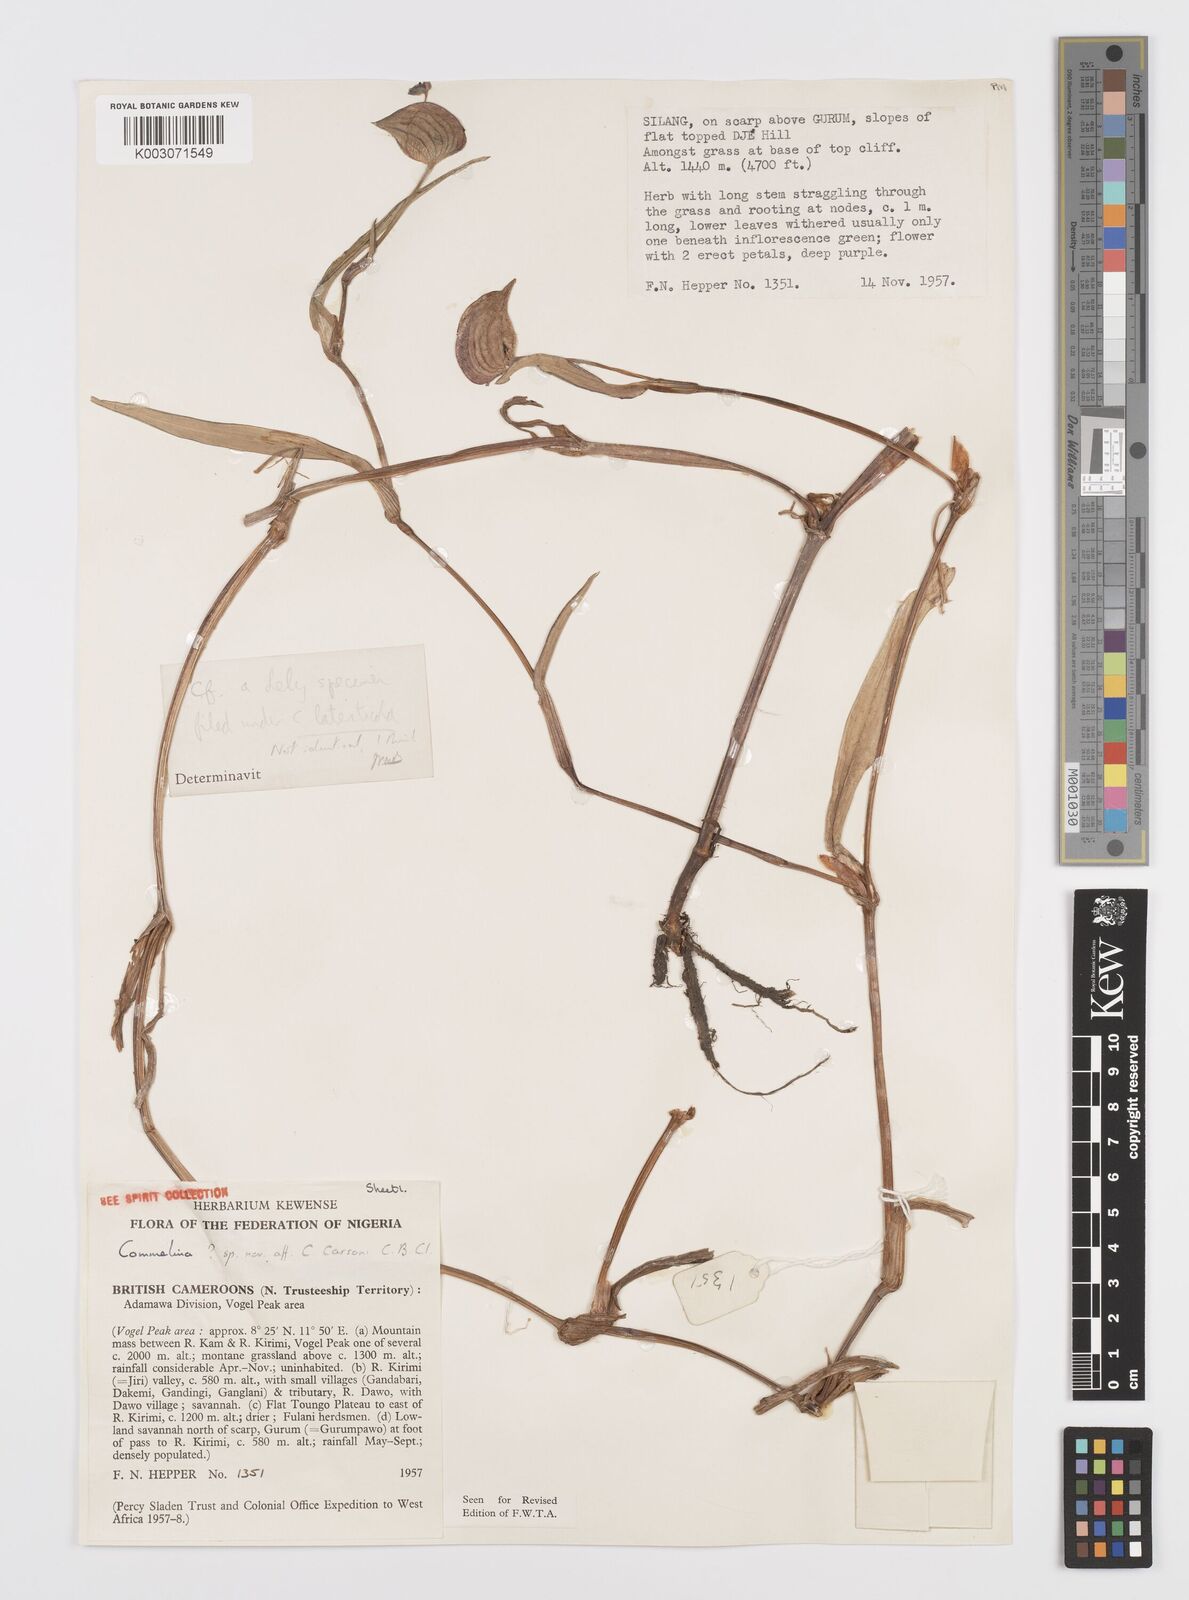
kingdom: Plantae
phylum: Tracheophyta
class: Liliopsida
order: Commelinales
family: Commelinaceae
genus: Commelina
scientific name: Commelina schweinfurthii
